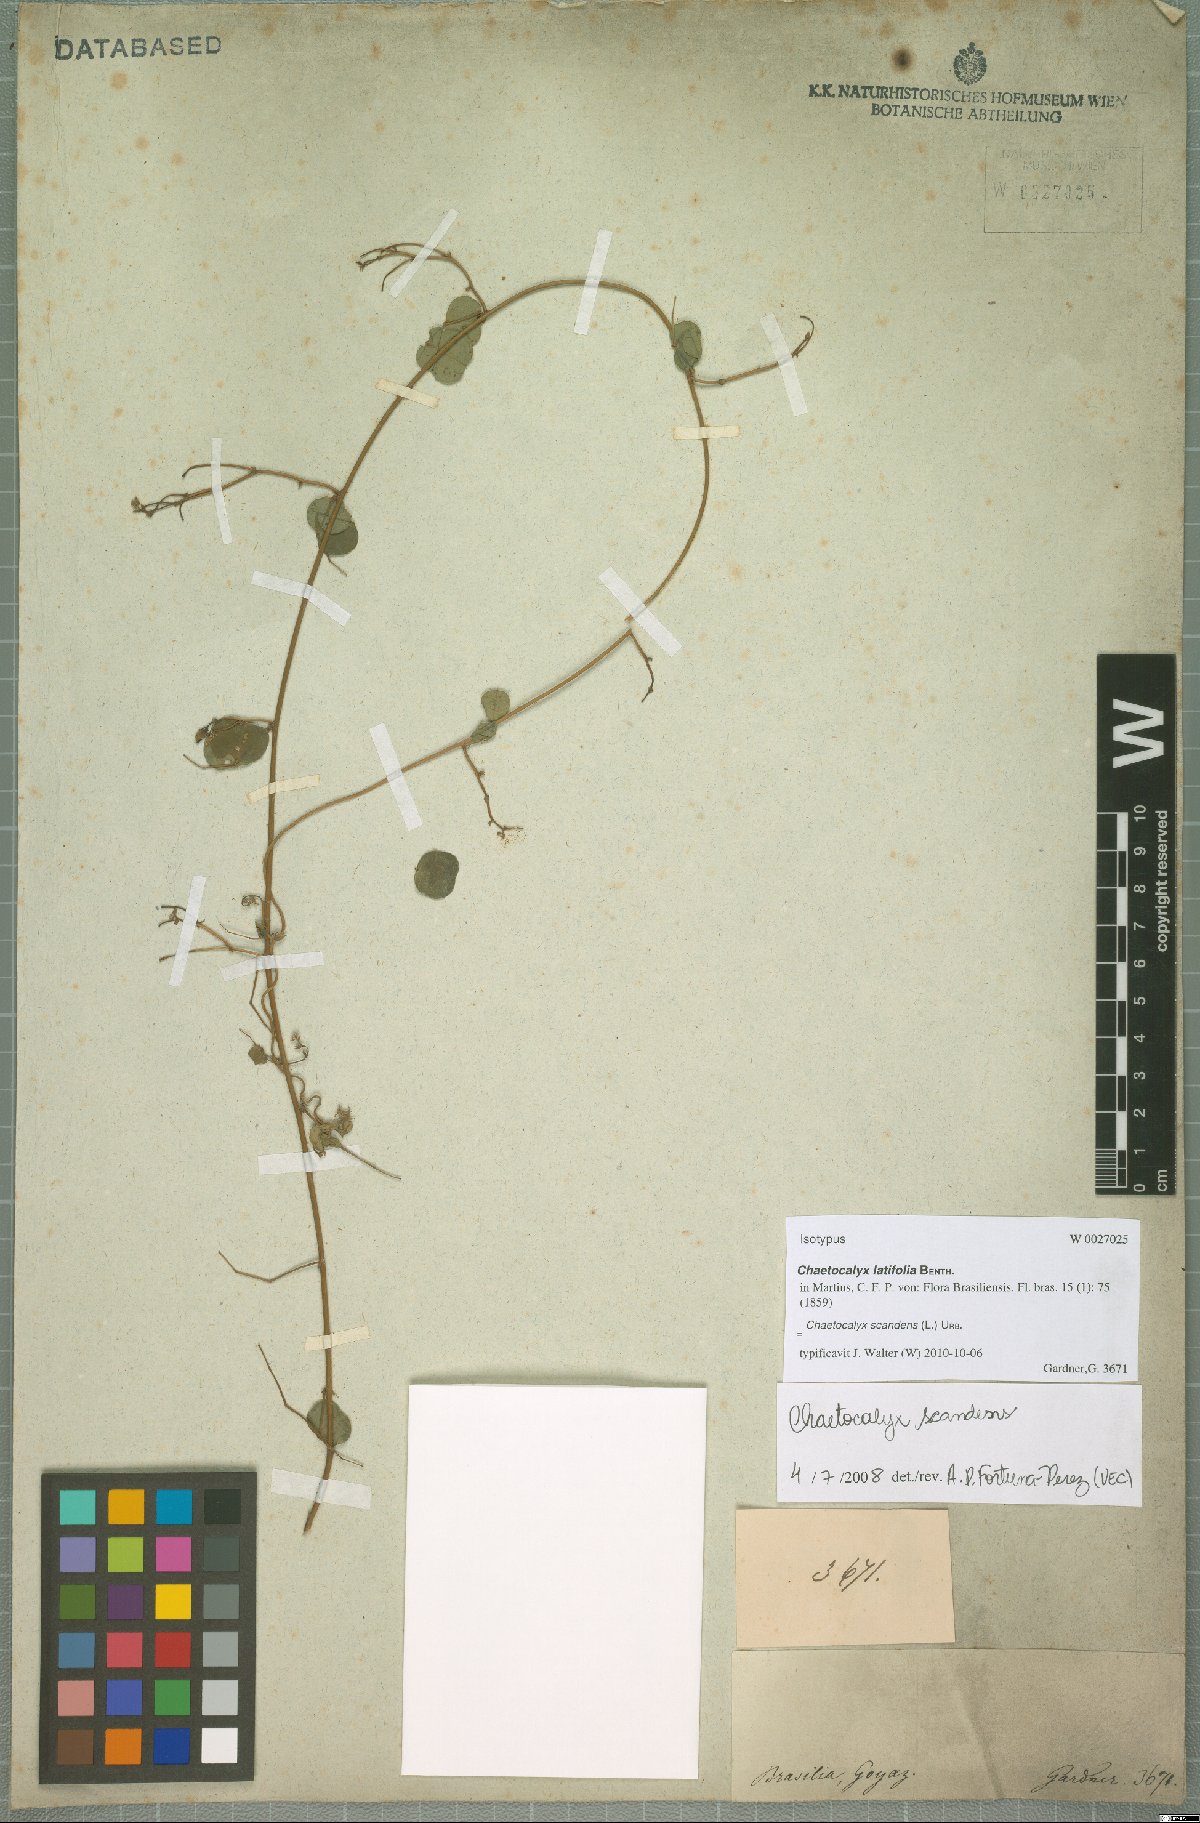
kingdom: Plantae
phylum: Tracheophyta
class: Magnoliopsida
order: Fabales
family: Fabaceae
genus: Nissolia
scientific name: Nissolia vincentina
